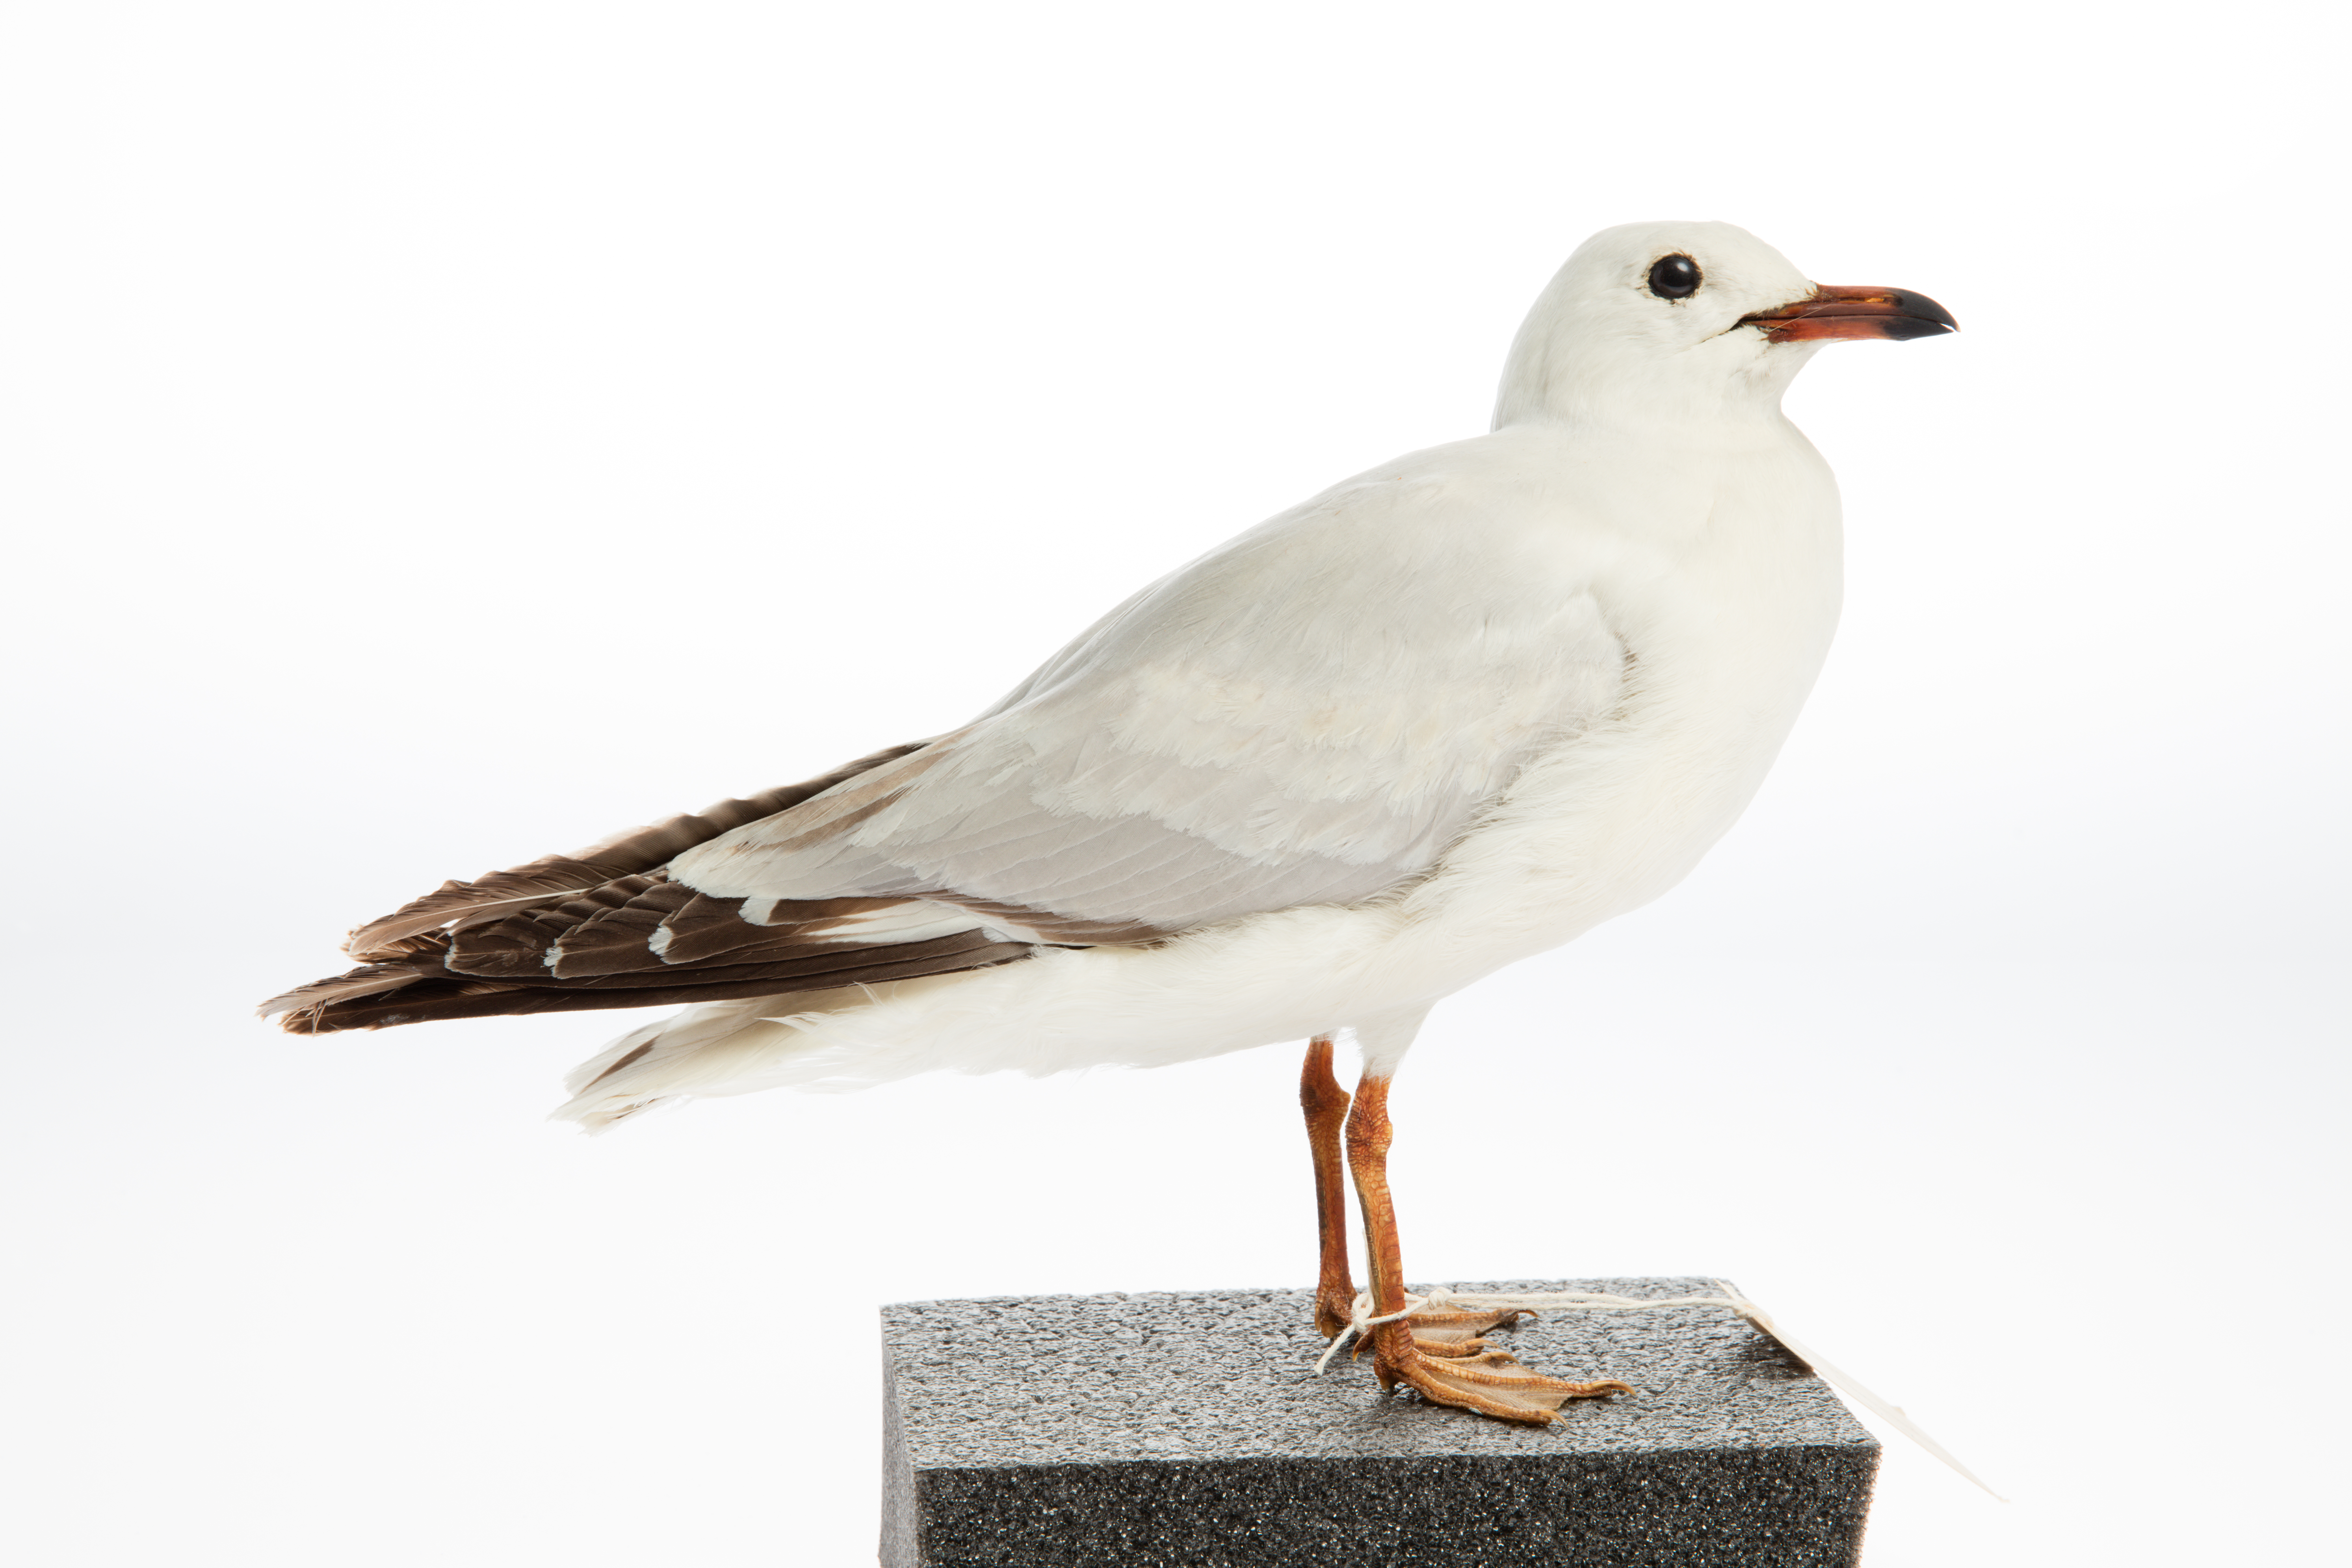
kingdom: Animalia
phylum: Chordata
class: Aves
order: Charadriiformes
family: Laridae
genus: Chroicocephalus
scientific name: Chroicocephalus novaehollandiae
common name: Silver gull
